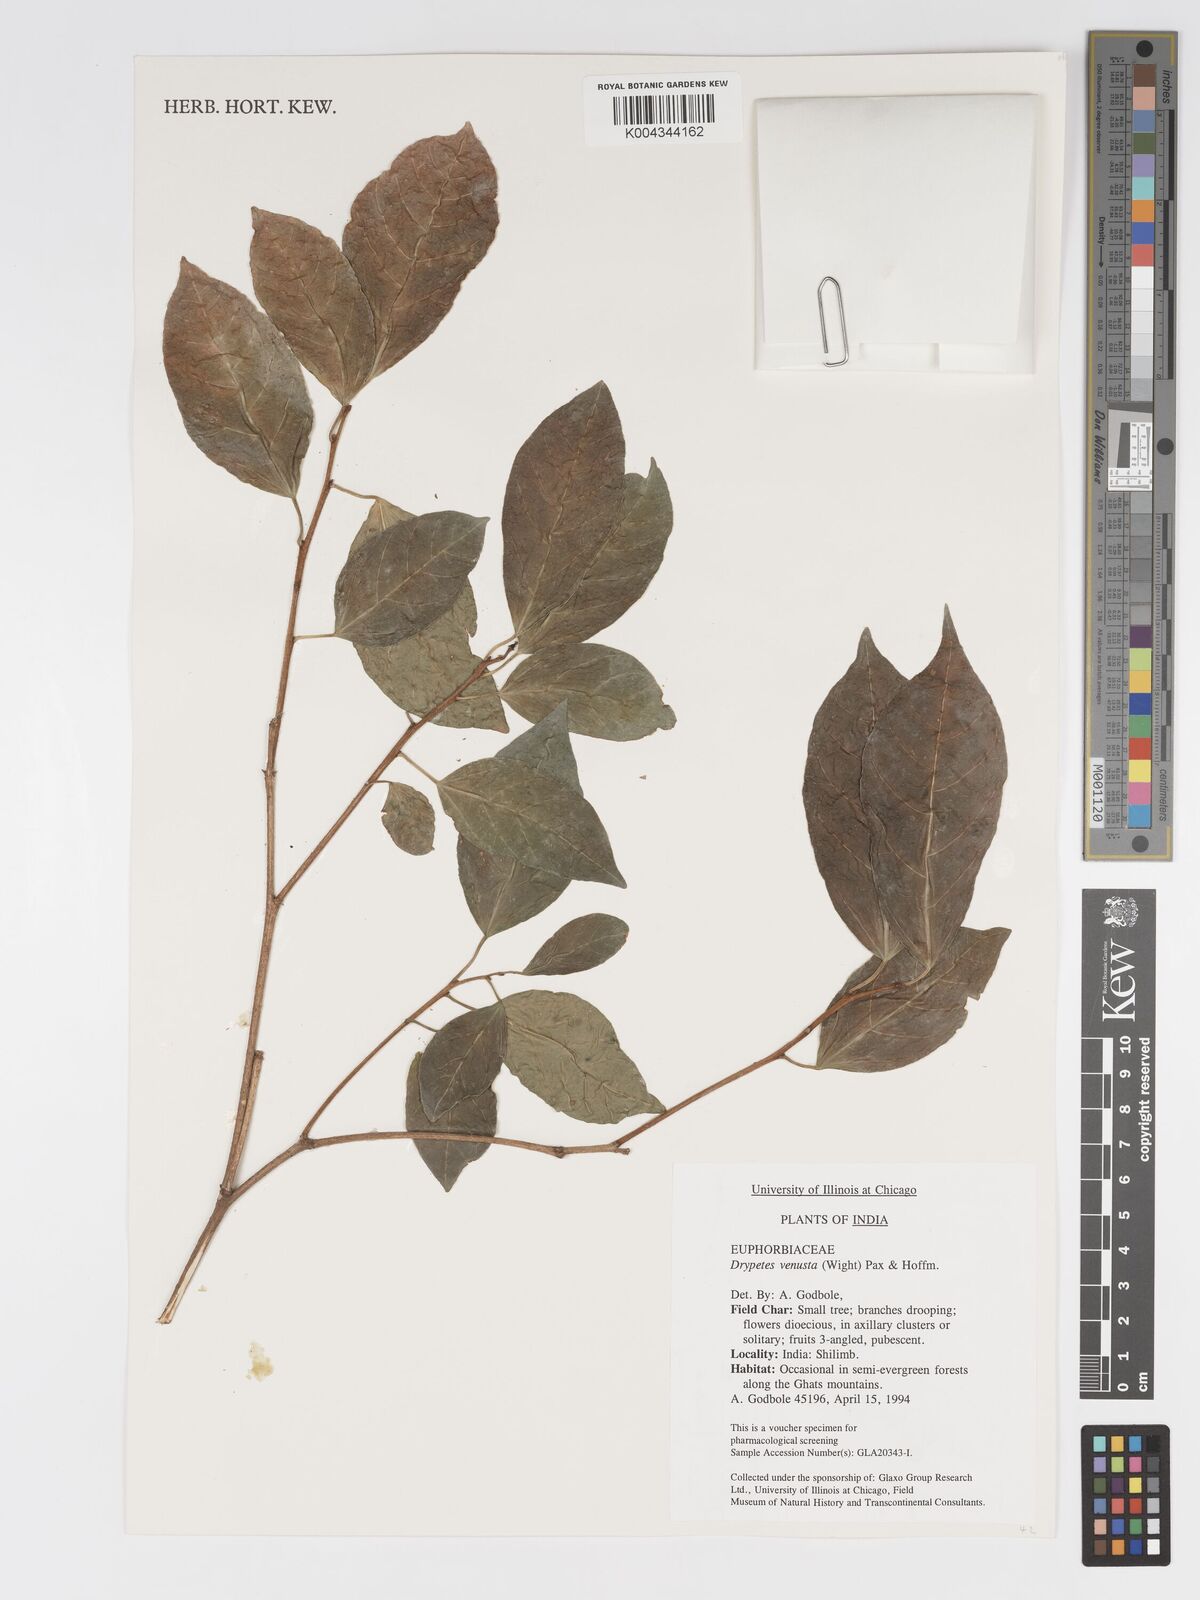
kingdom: Plantae
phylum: Tracheophyta
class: Magnoliopsida
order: Malpighiales
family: Putranjivaceae
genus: Drypetes
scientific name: Drypetes venusta
